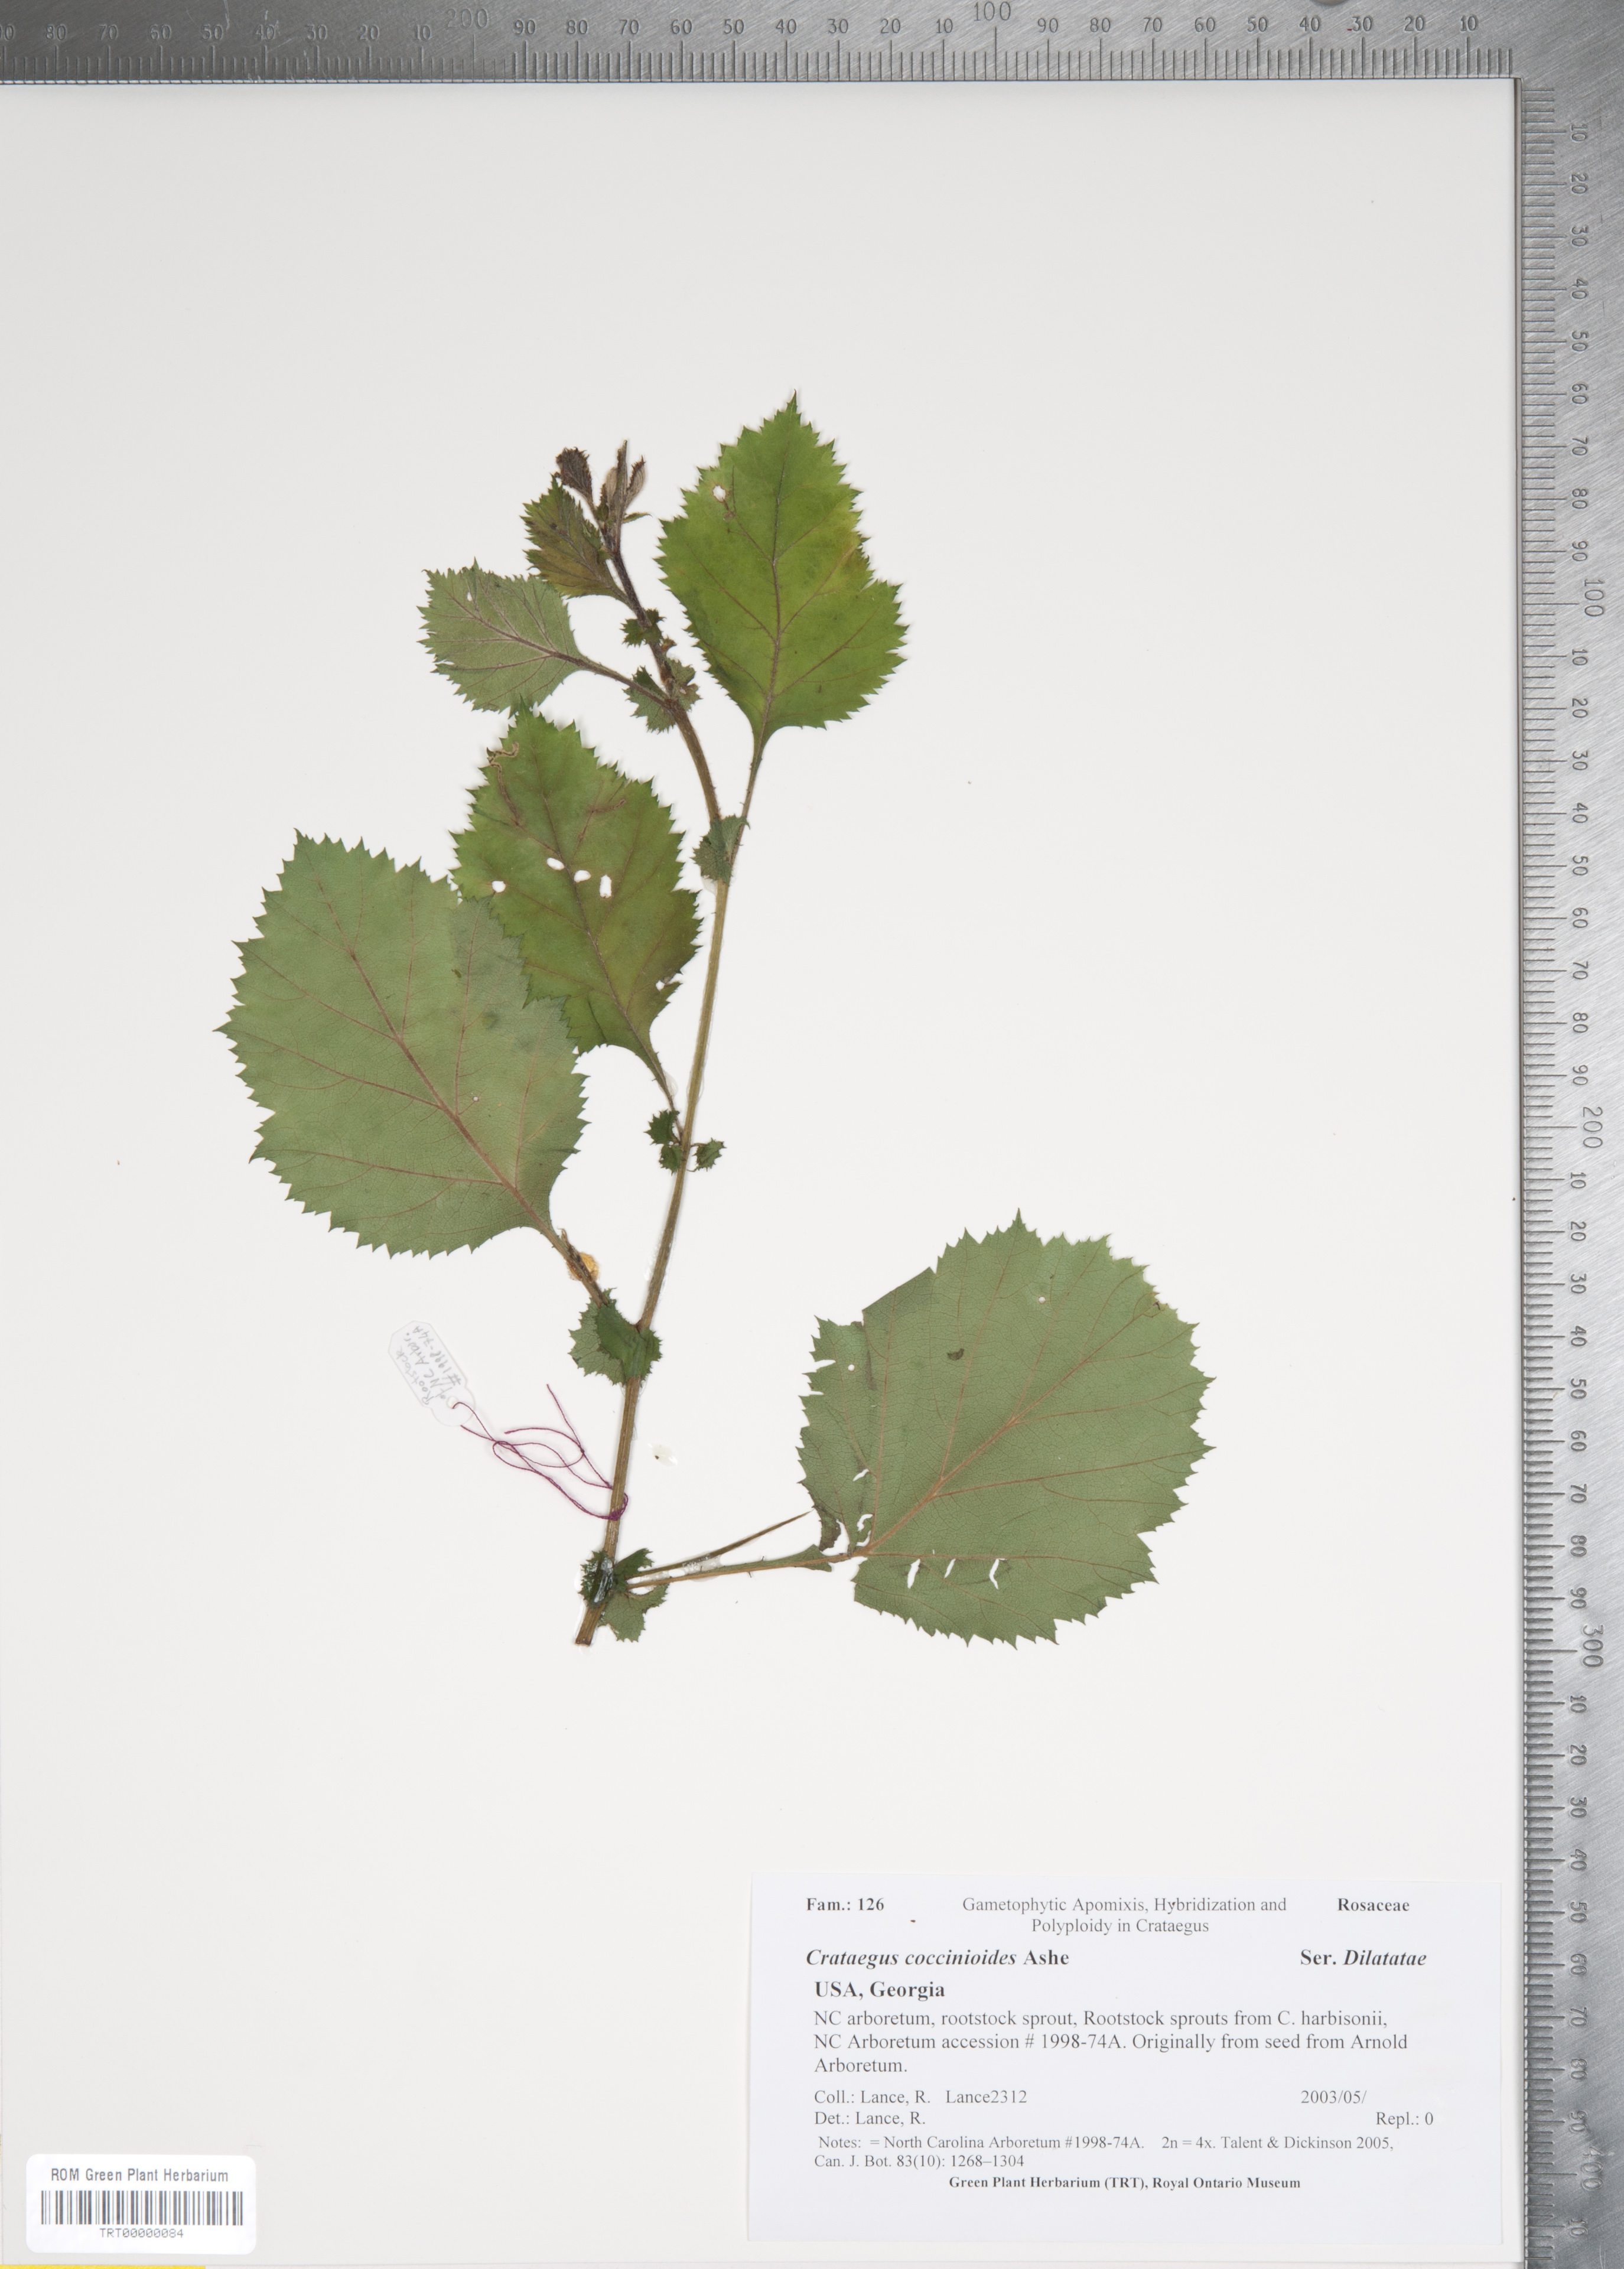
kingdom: Plantae
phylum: Tracheophyta
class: Magnoliopsida
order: Rosales
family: Rosaceae
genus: Crataegus
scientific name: Crataegus coccinioides
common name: Large-flowered cockspurthorn
